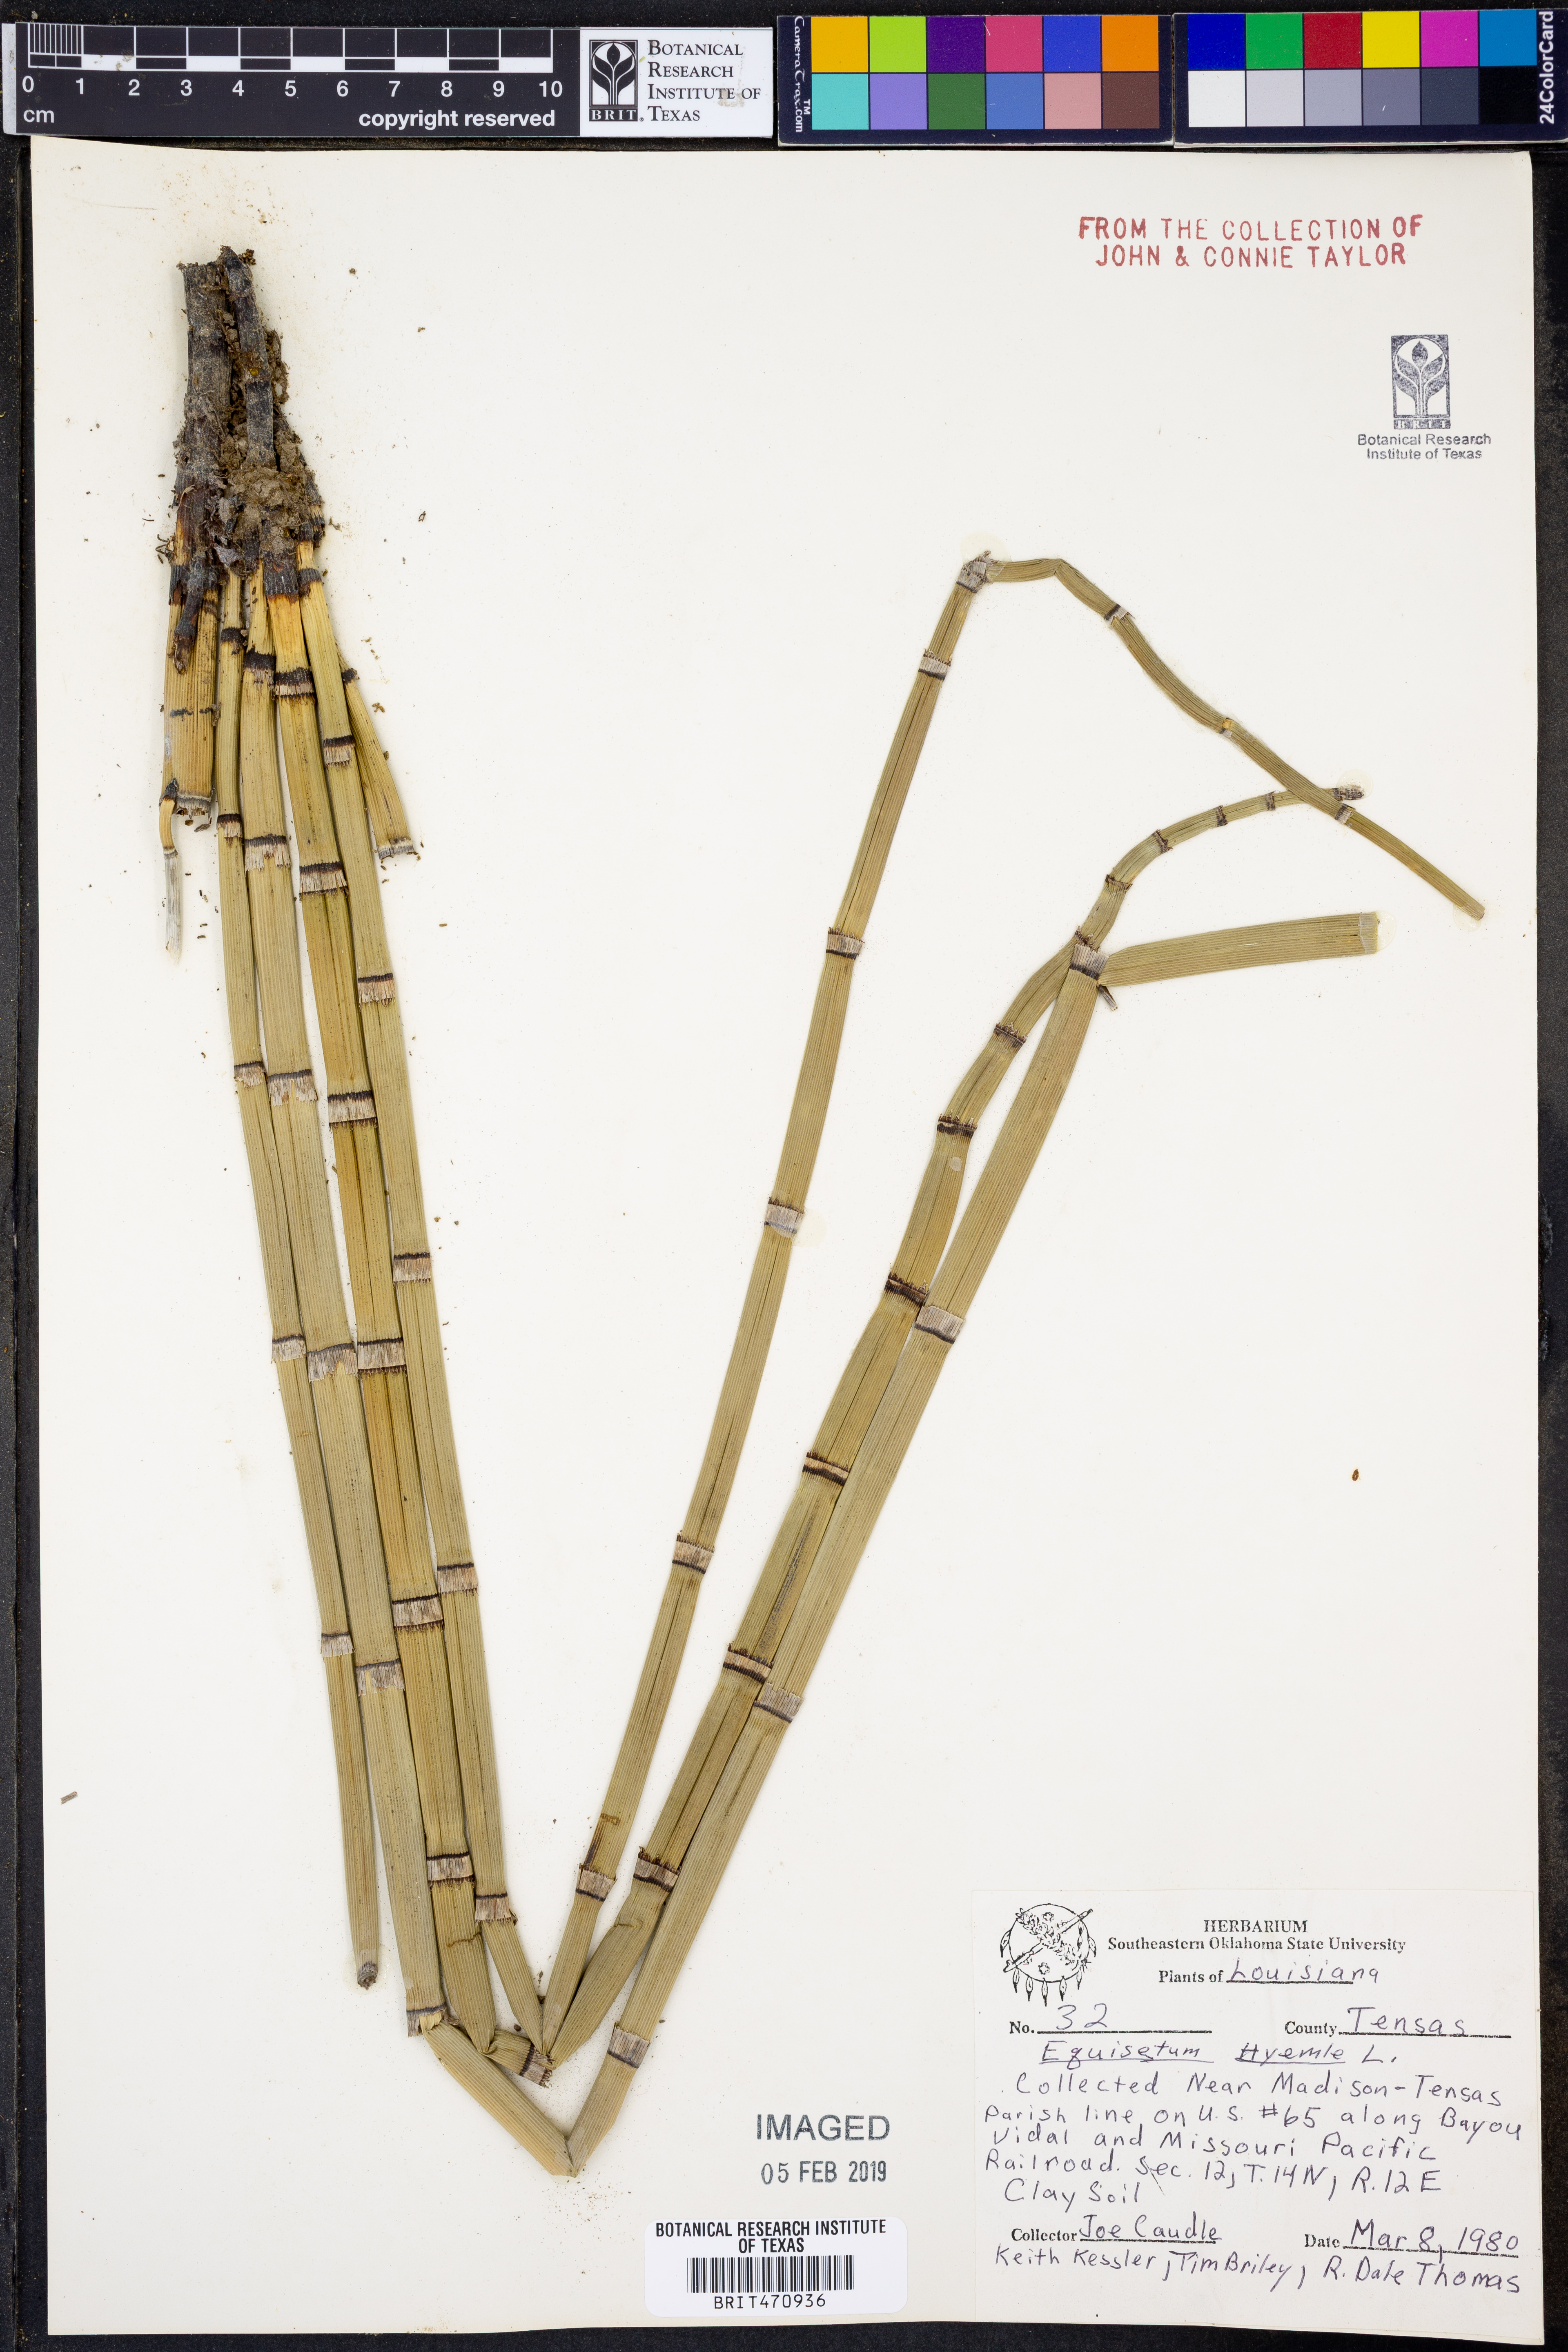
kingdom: Plantae
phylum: Tracheophyta
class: Polypodiopsida
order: Equisetales
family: Equisetaceae
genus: Equisetum
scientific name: Equisetum hyemale
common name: Rough horsetail
